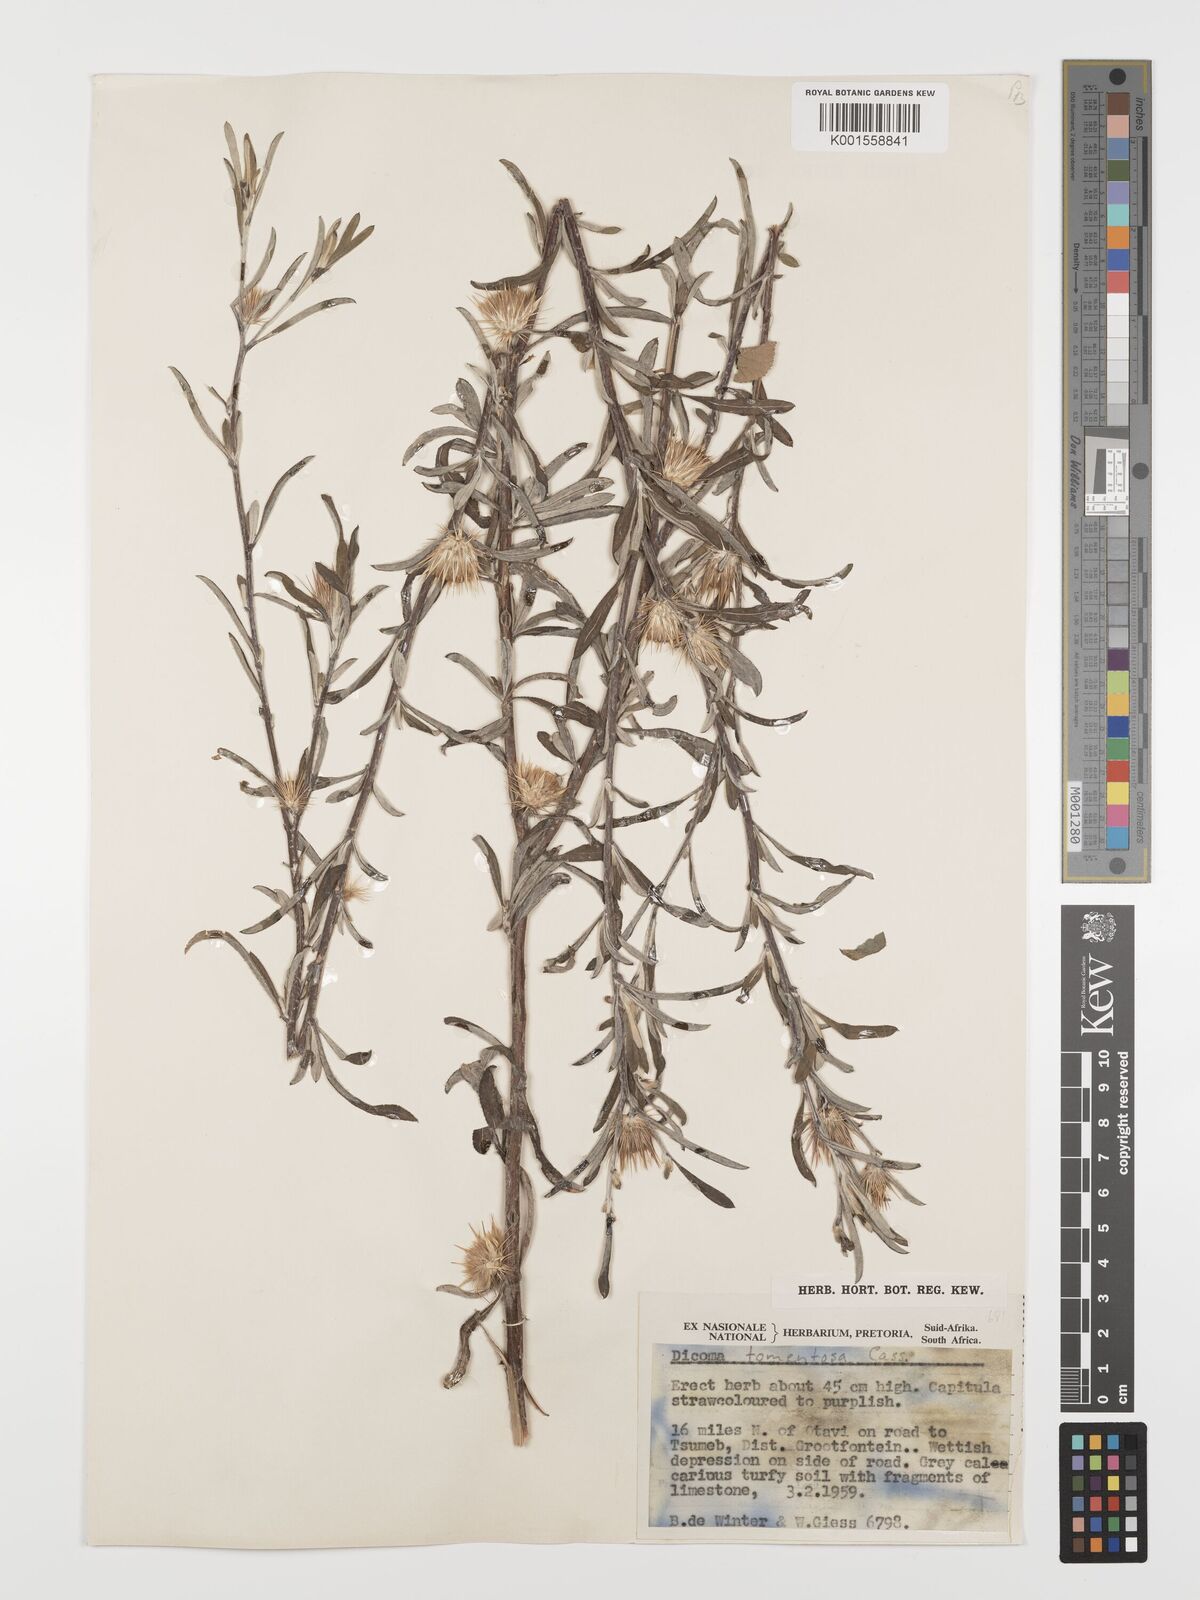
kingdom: Plantae
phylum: Tracheophyta
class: Magnoliopsida
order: Asterales
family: Asteraceae
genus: Dicoma
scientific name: Dicoma tomentosa
